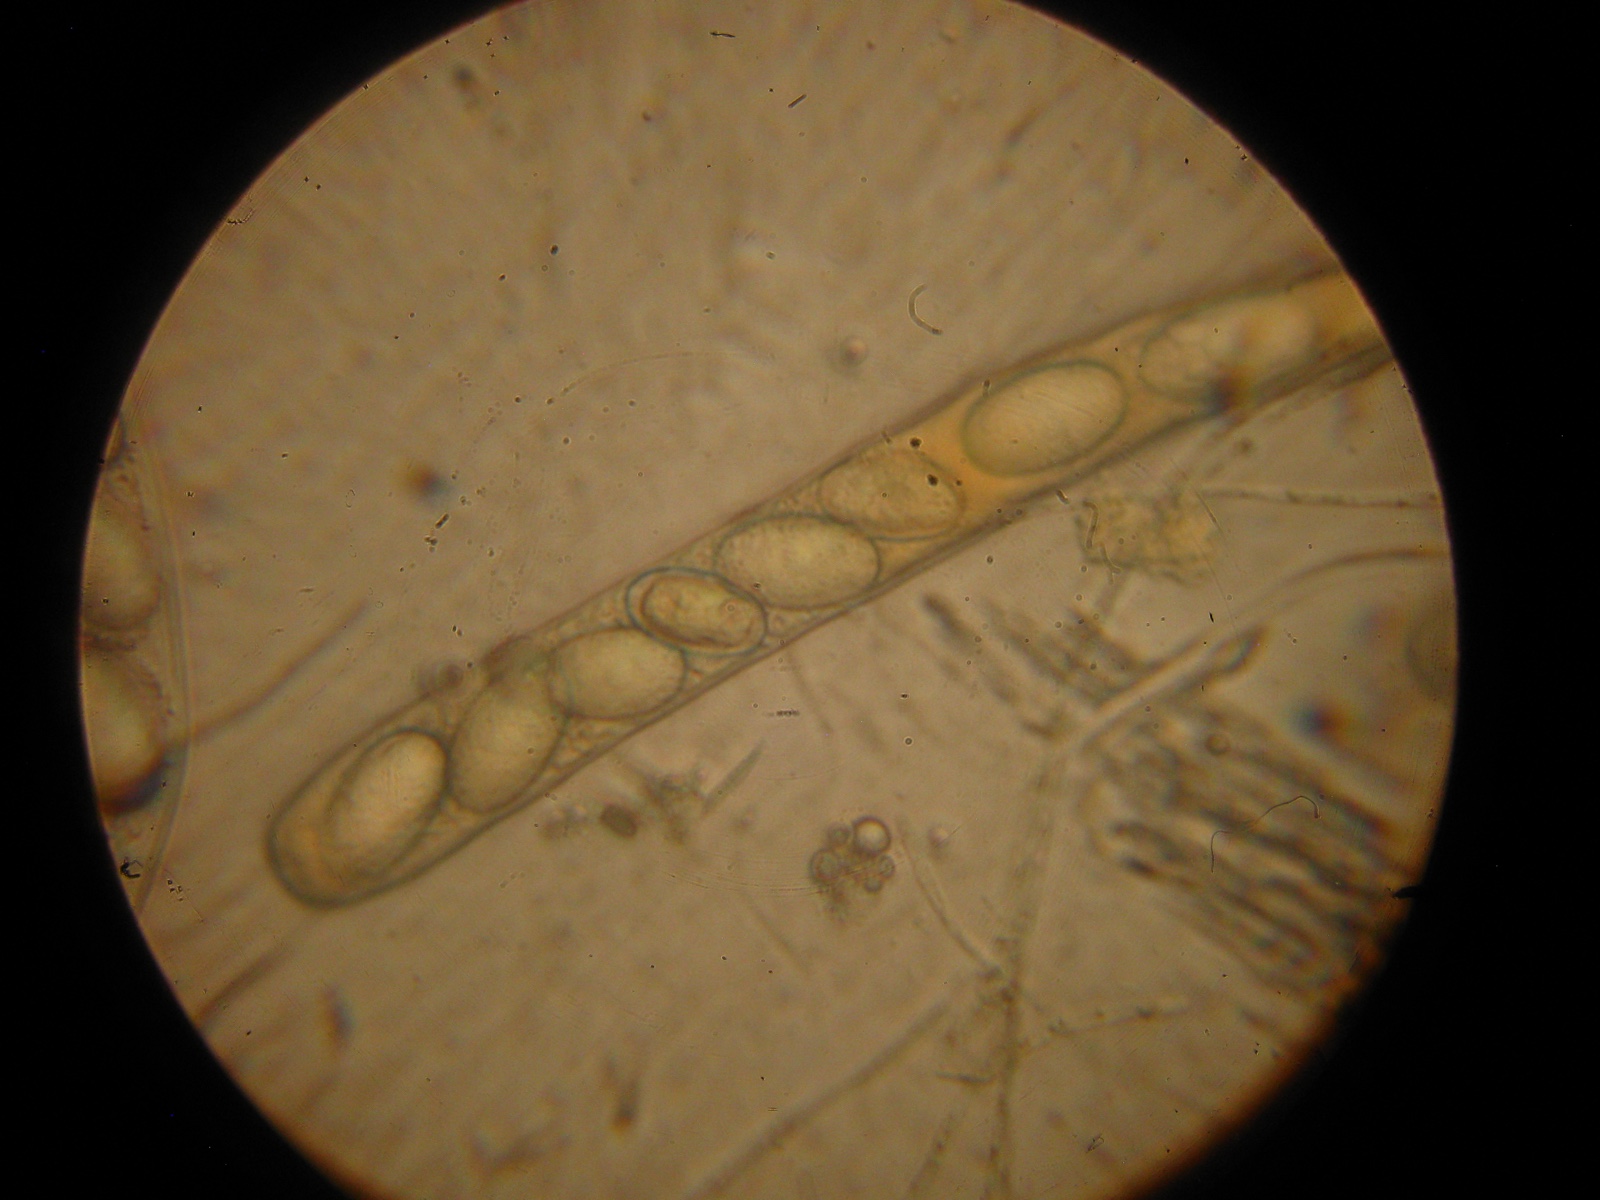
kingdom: Fungi
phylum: Ascomycota
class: Pezizomycetes
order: Pezizales
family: Ascodesmidaceae
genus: Lasiobolus
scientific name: Lasiobolus papillatus
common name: enradet øjebæger
